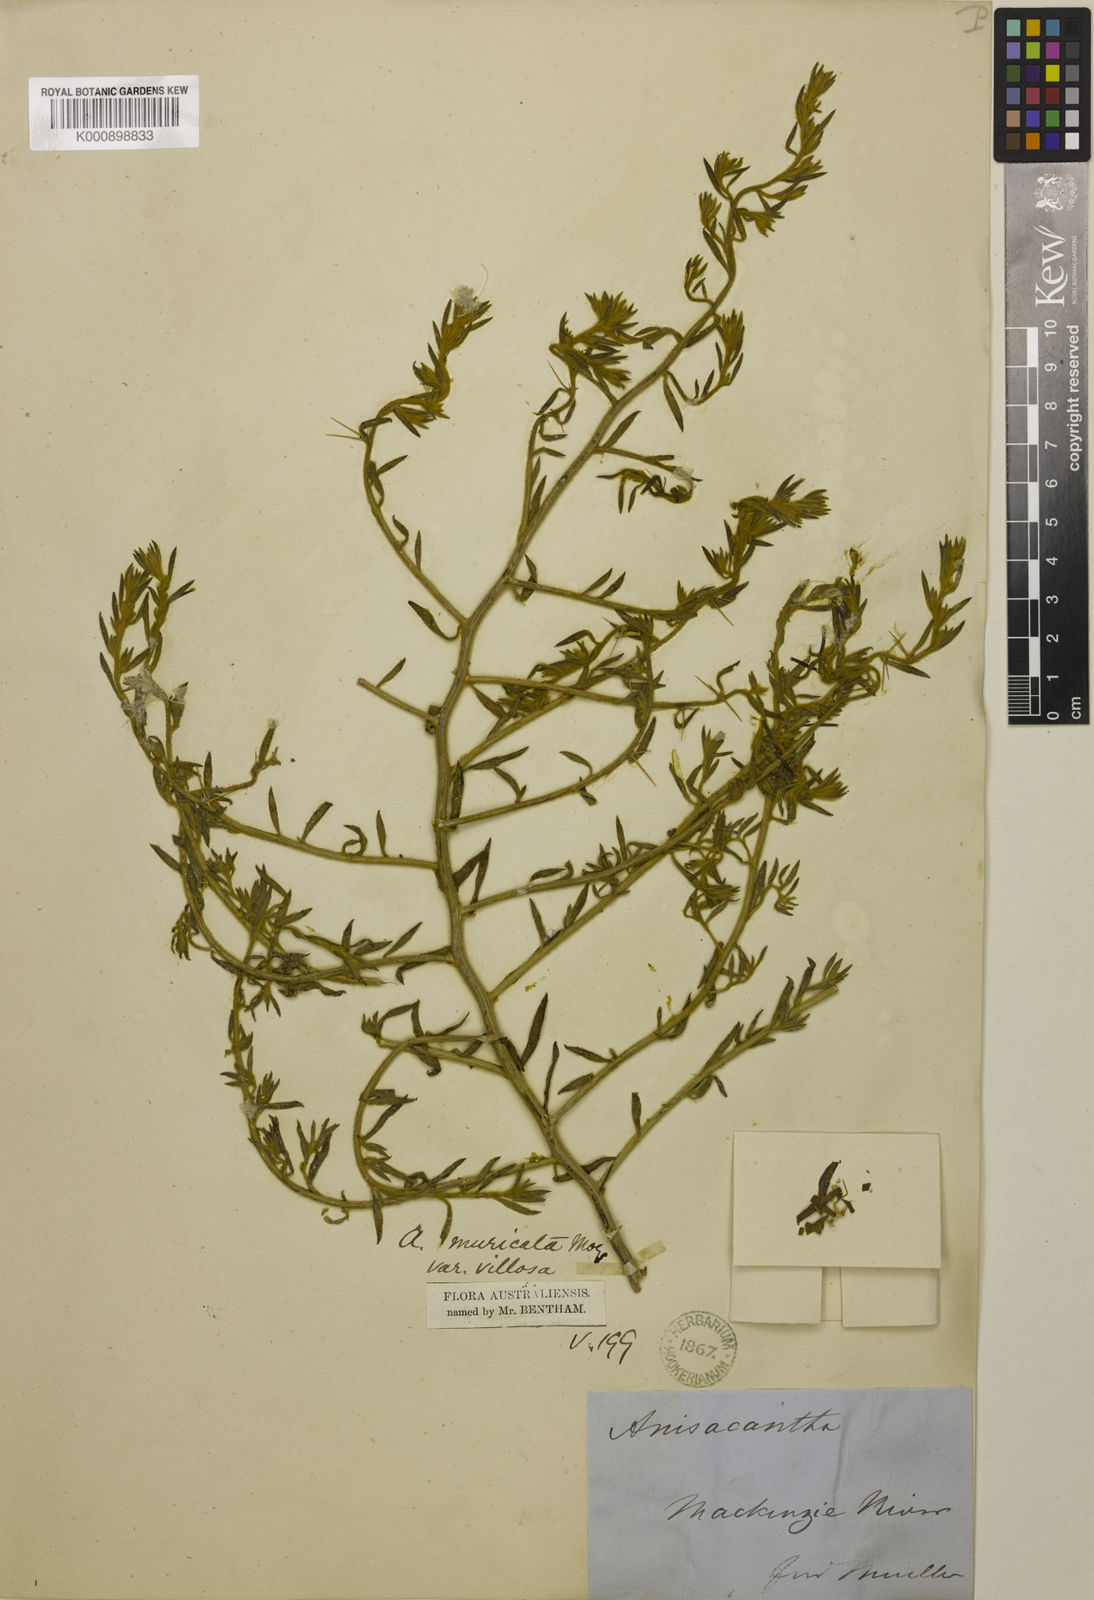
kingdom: Plantae
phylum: Tracheophyta
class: Magnoliopsida
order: Caryophyllales
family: Amaranthaceae
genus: Sclerolaena
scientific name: Sclerolaena muricata
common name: Roly-poly
